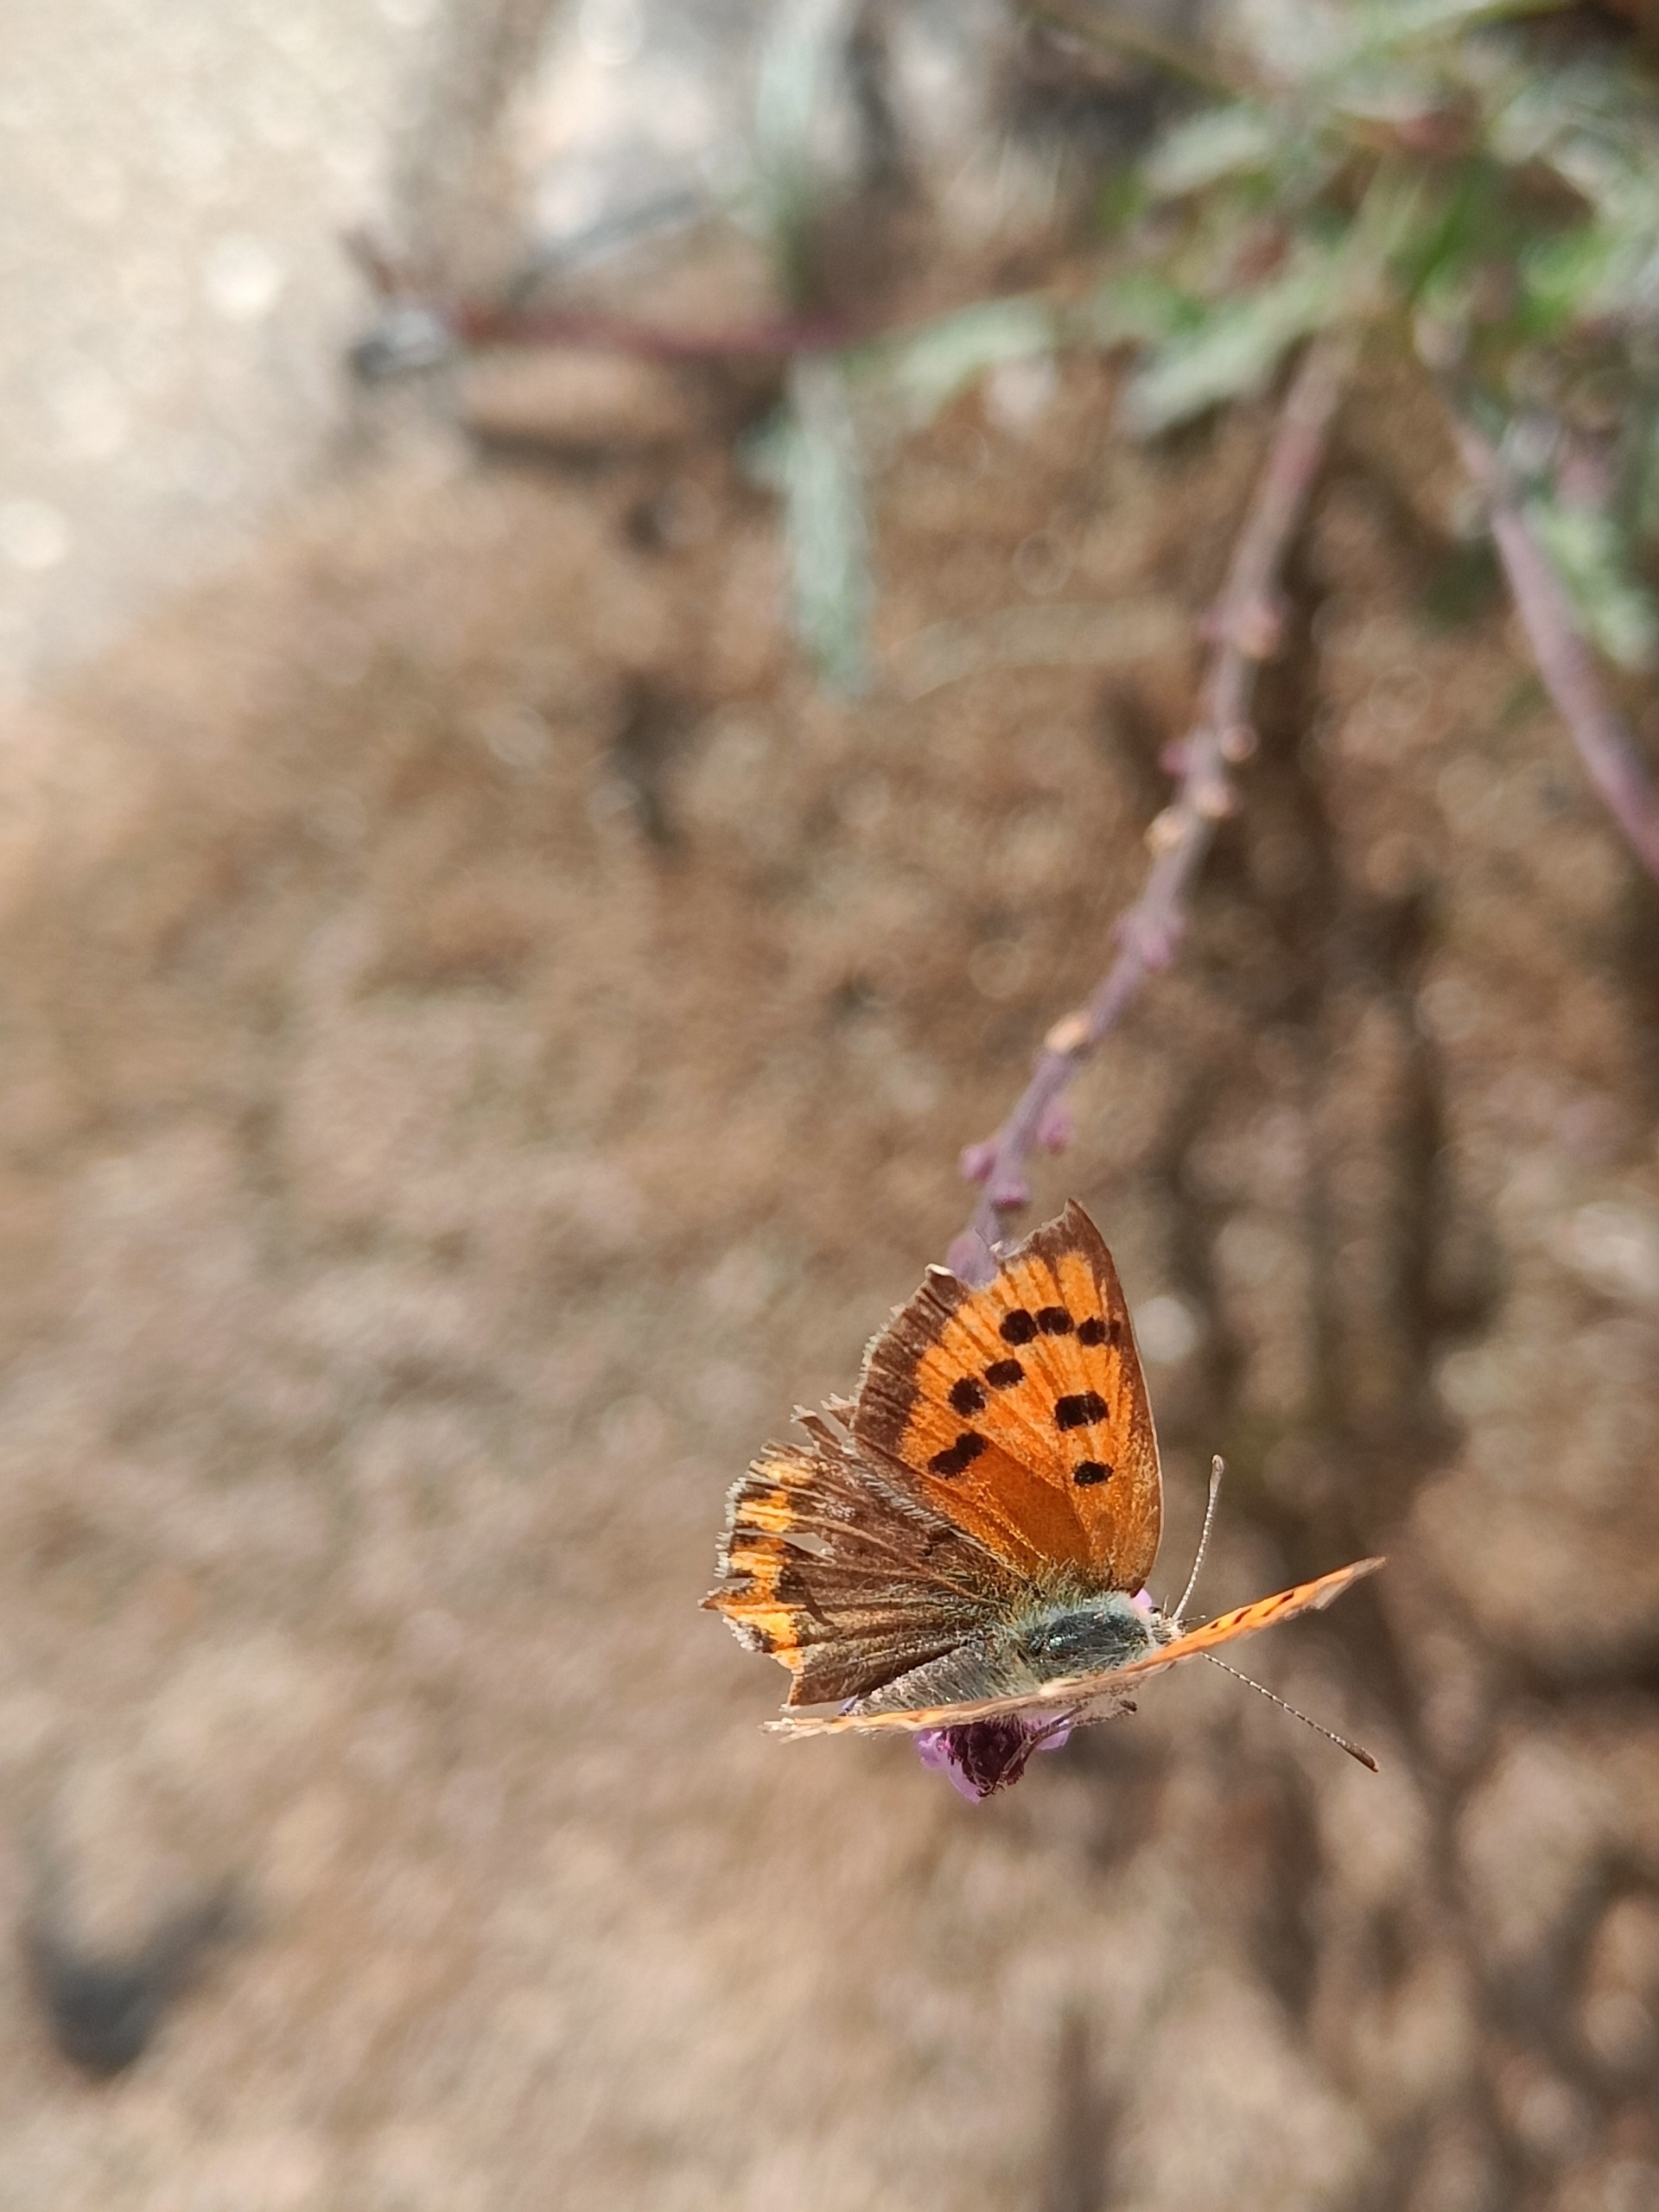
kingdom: Animalia
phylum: Arthropoda
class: Insecta
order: Lepidoptera
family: Lycaenidae
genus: Lycaena
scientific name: Lycaena phlaeas
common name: Lille ildfugl
